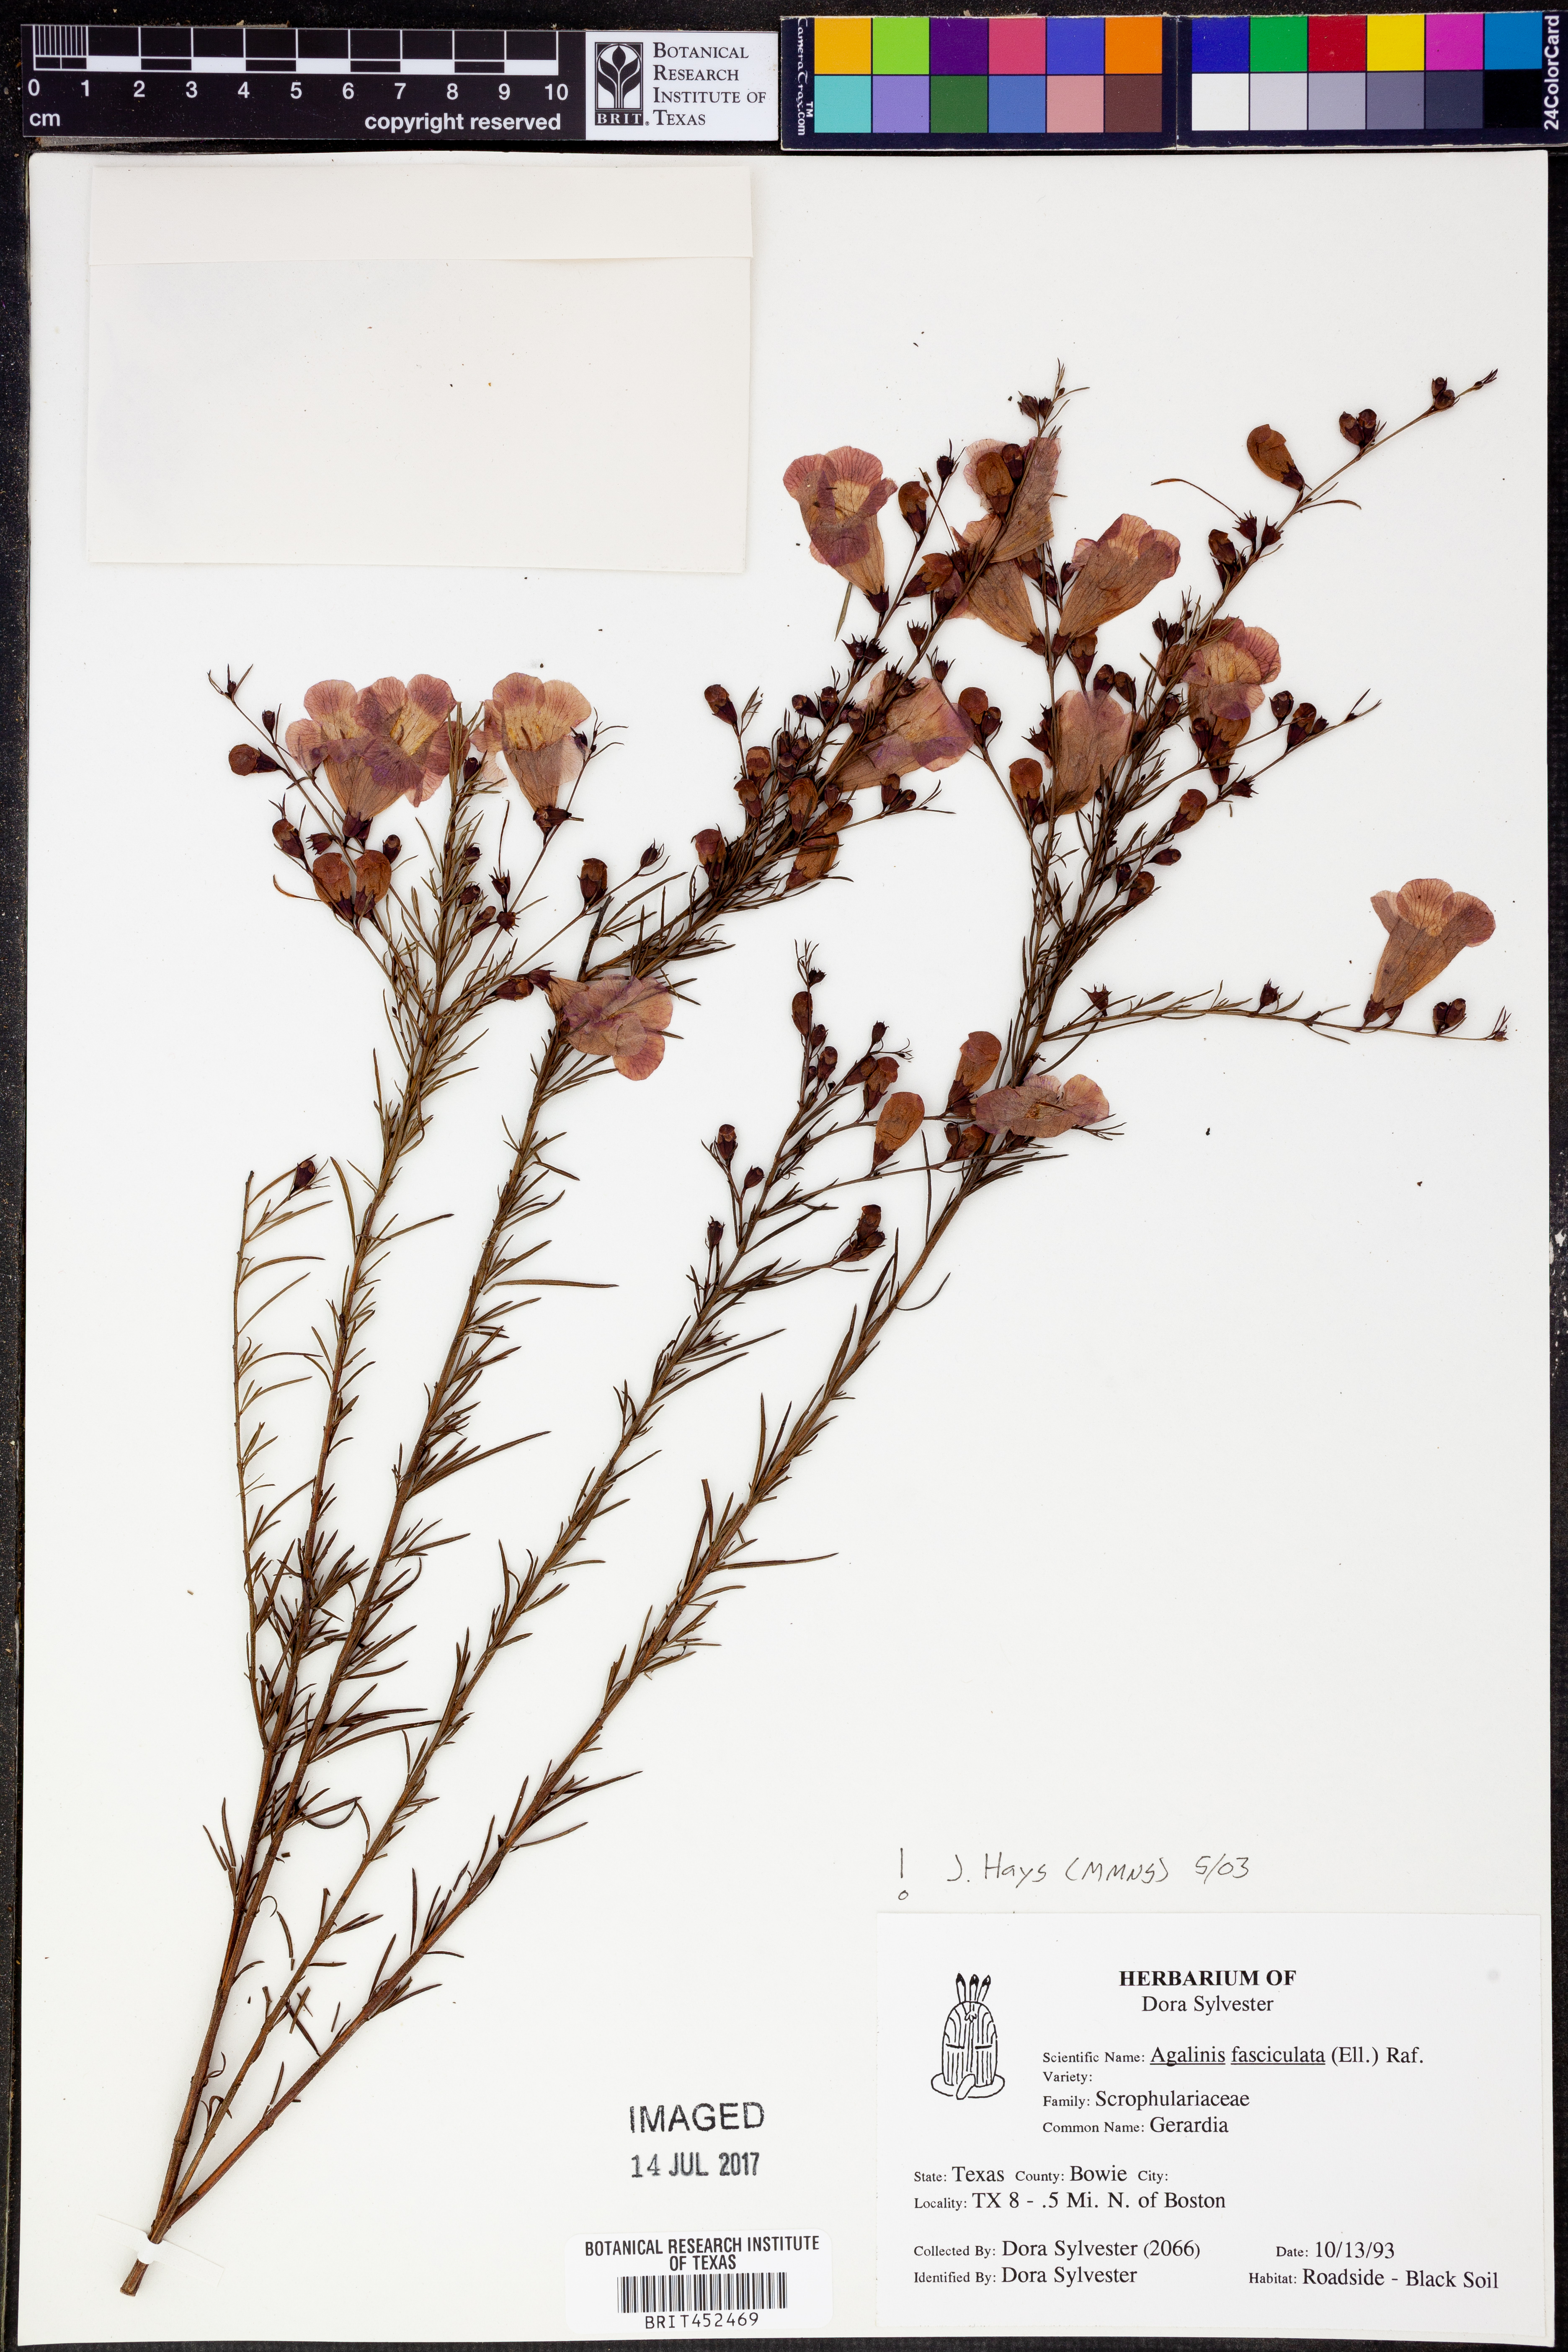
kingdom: Plantae
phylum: Tracheophyta
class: Magnoliopsida
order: Lamiales
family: Orobanchaceae
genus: Agalinis
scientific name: Agalinis fasciculata
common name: Beach false foxglove
